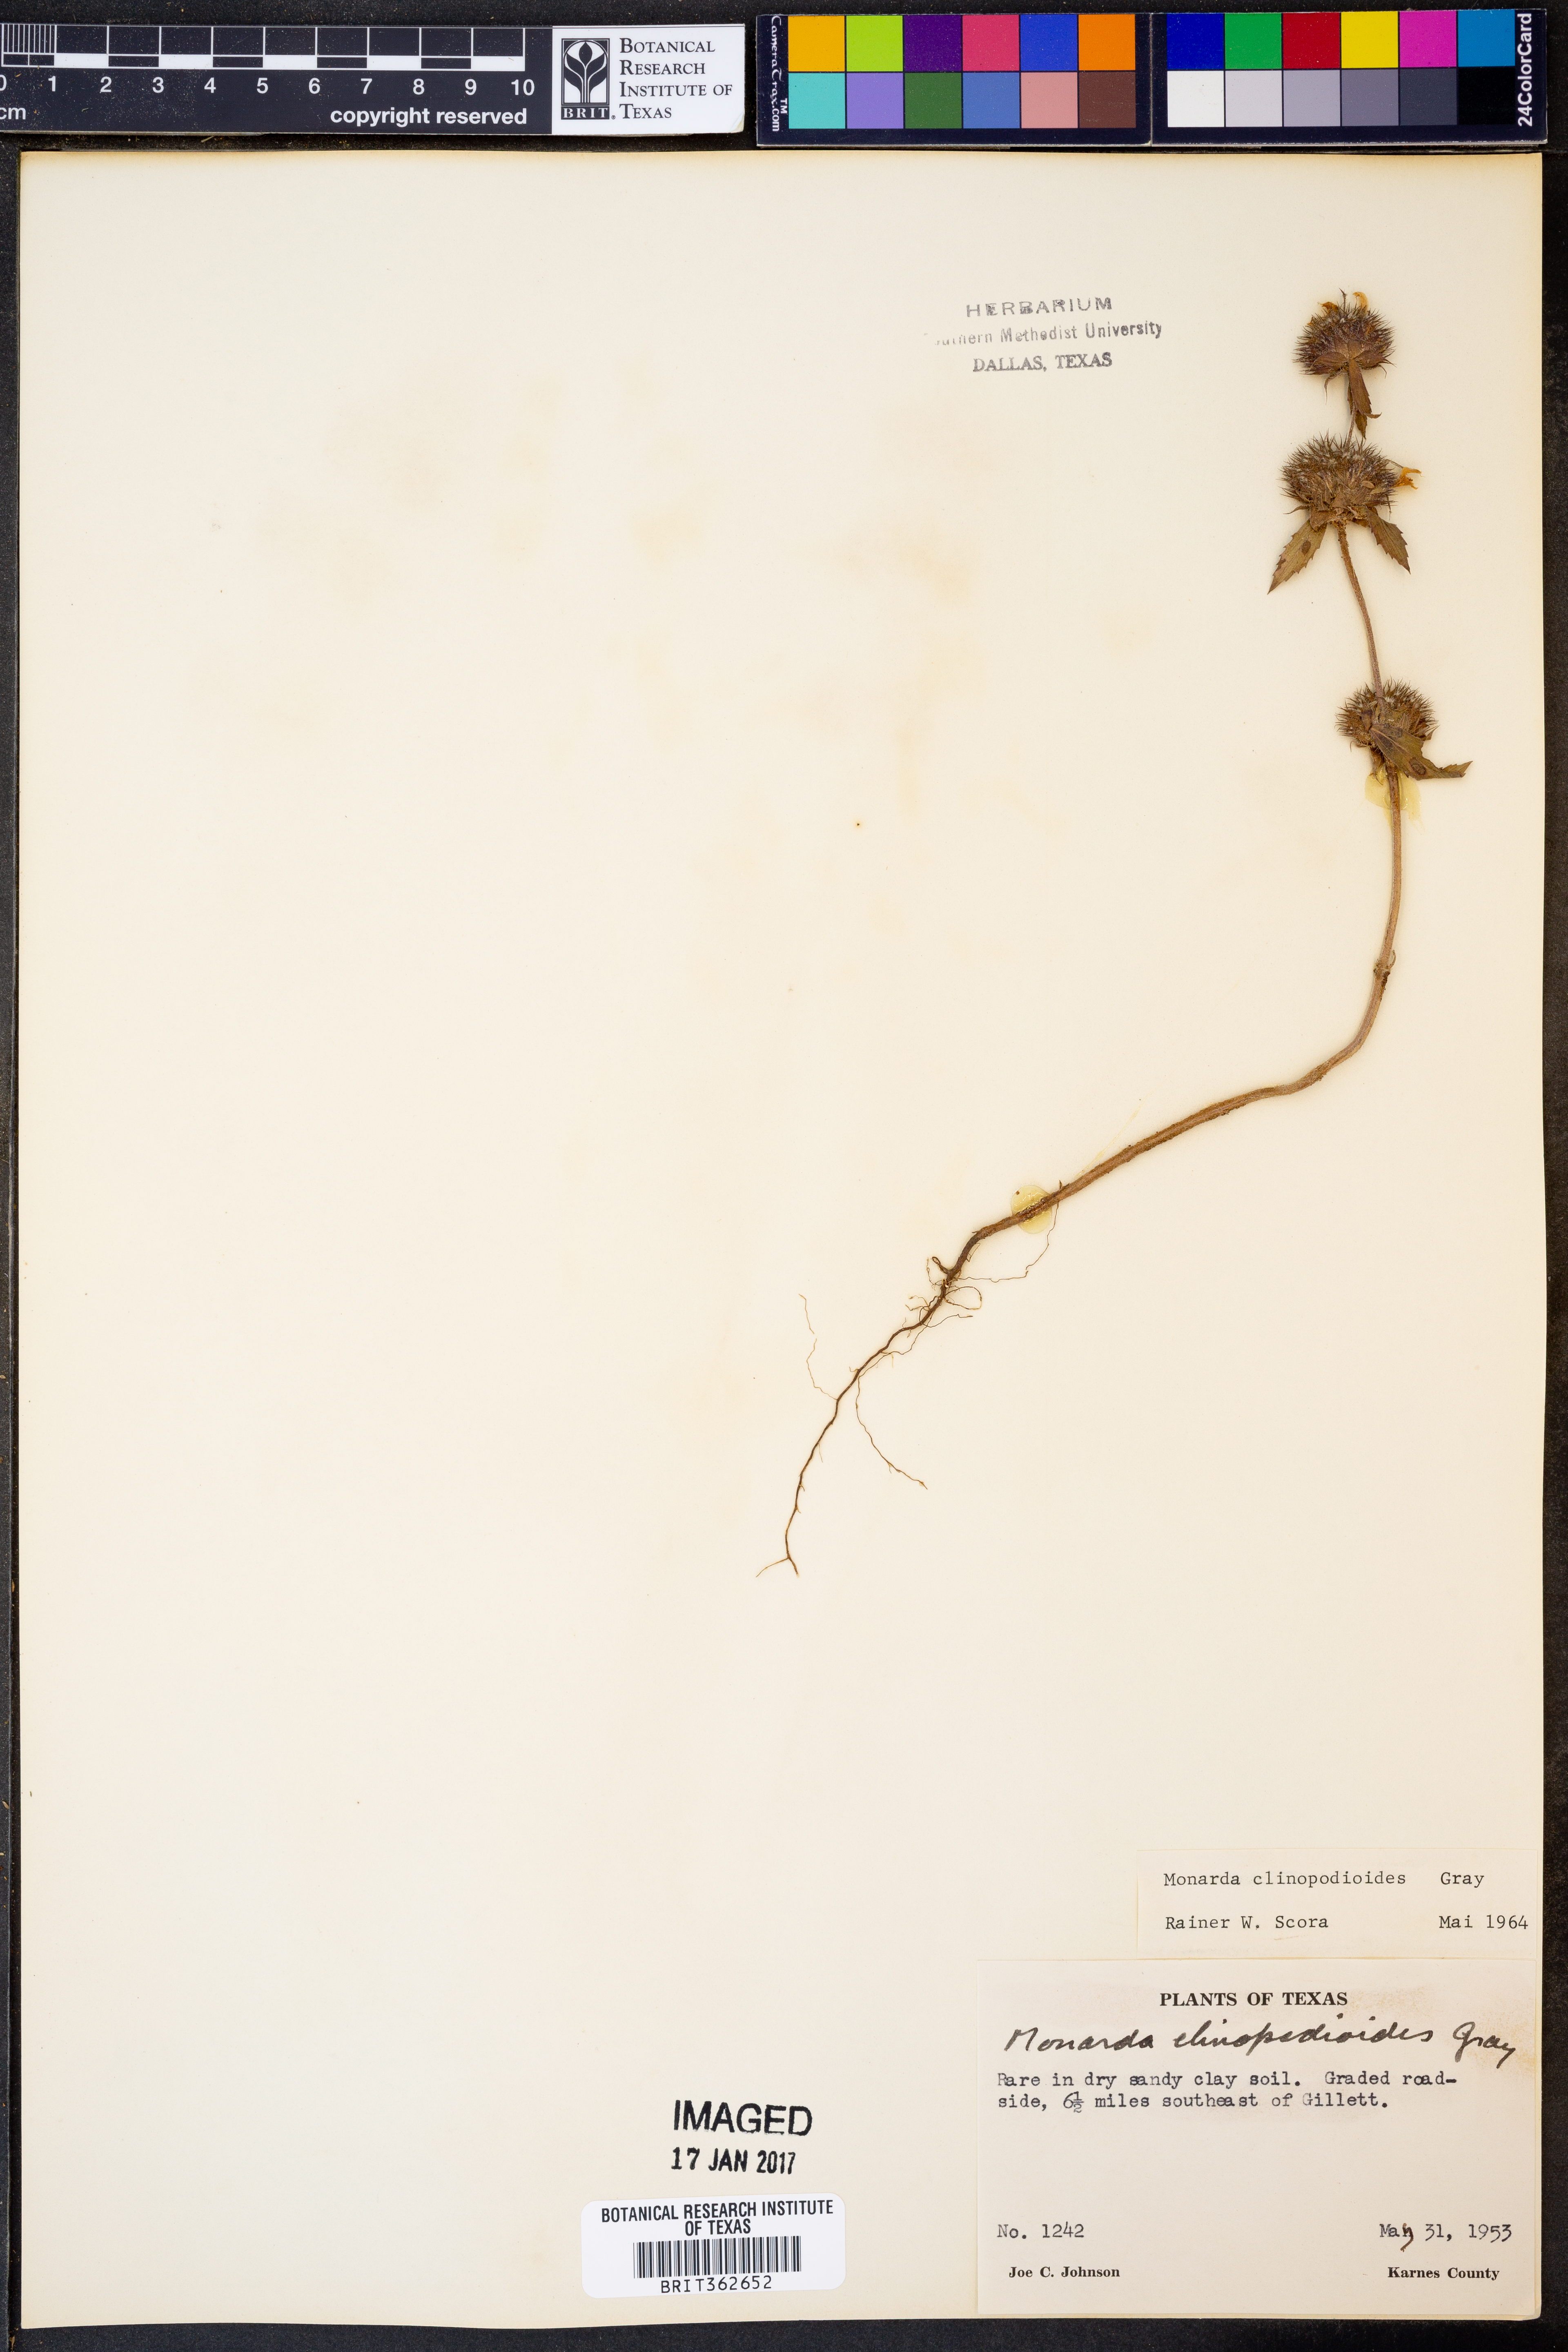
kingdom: Plantae
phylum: Tracheophyta
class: Magnoliopsida
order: Lamiales
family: Lamiaceae
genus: Monarda
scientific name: Monarda clinopodioides
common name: Basil beebalm
